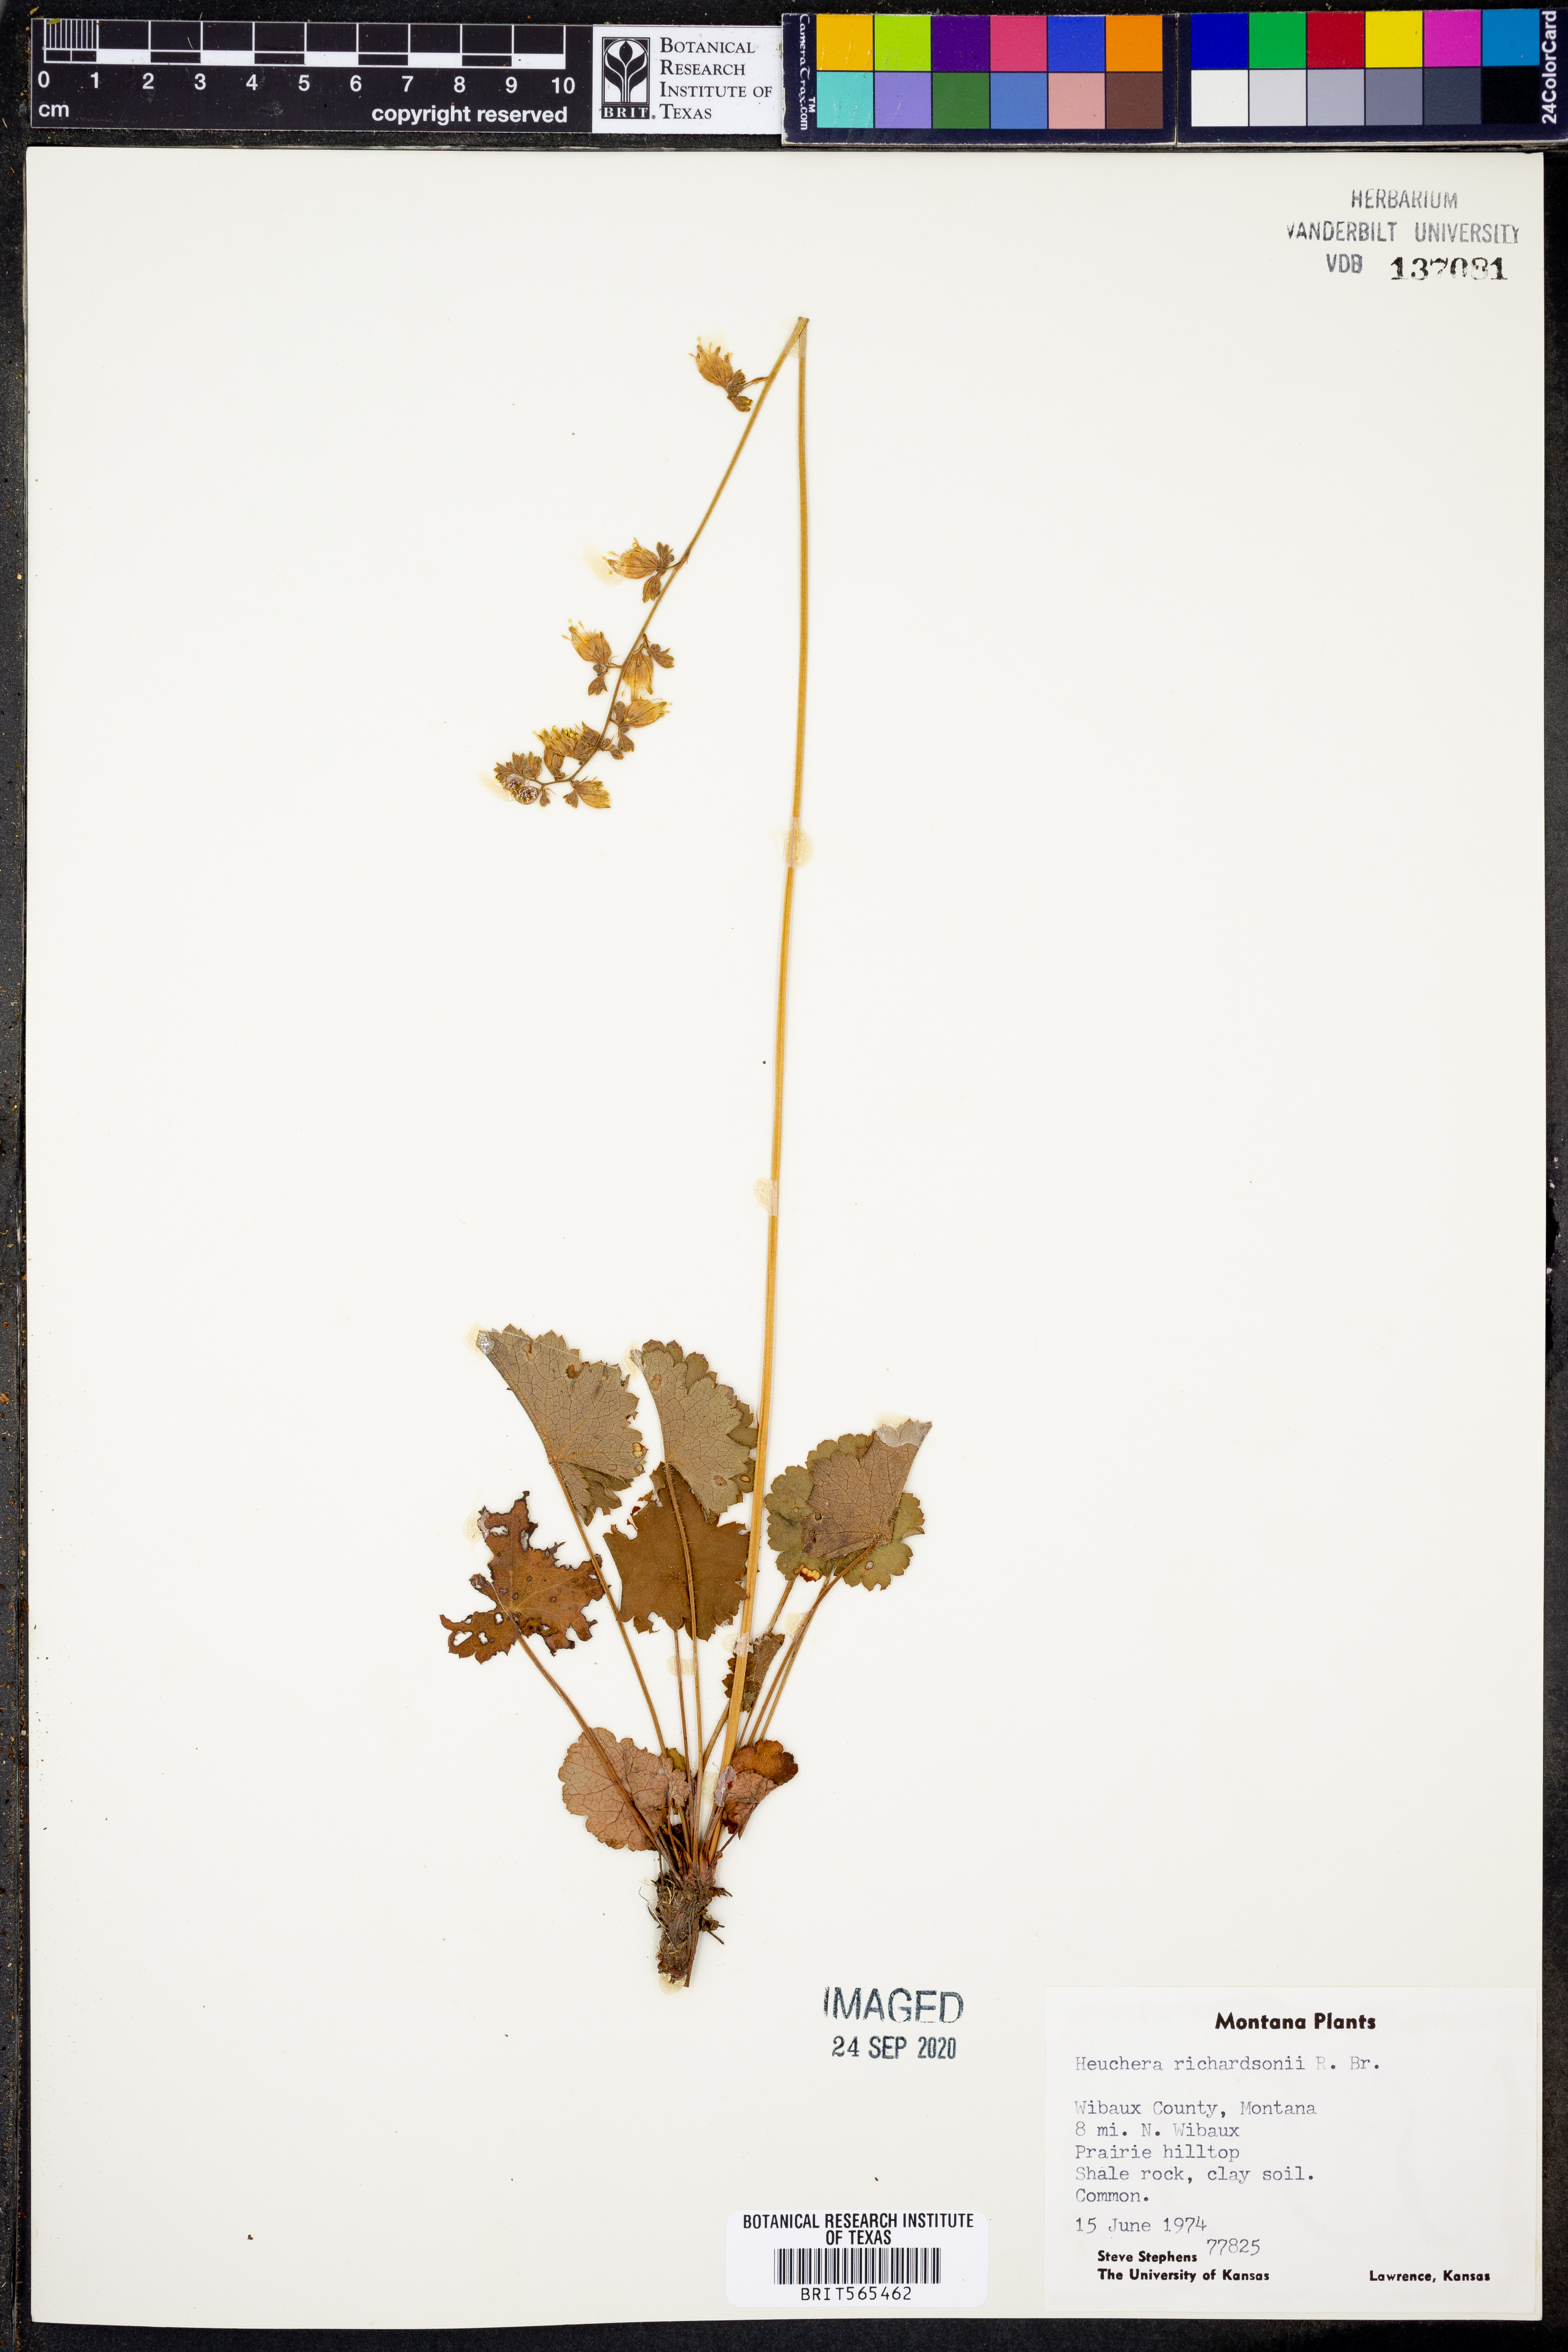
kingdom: Plantae
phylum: Tracheophyta
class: Magnoliopsida
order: Saxifragales
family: Saxifragaceae
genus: Heuchera
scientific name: Heuchera richardsonii
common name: Richardson's alumroot
